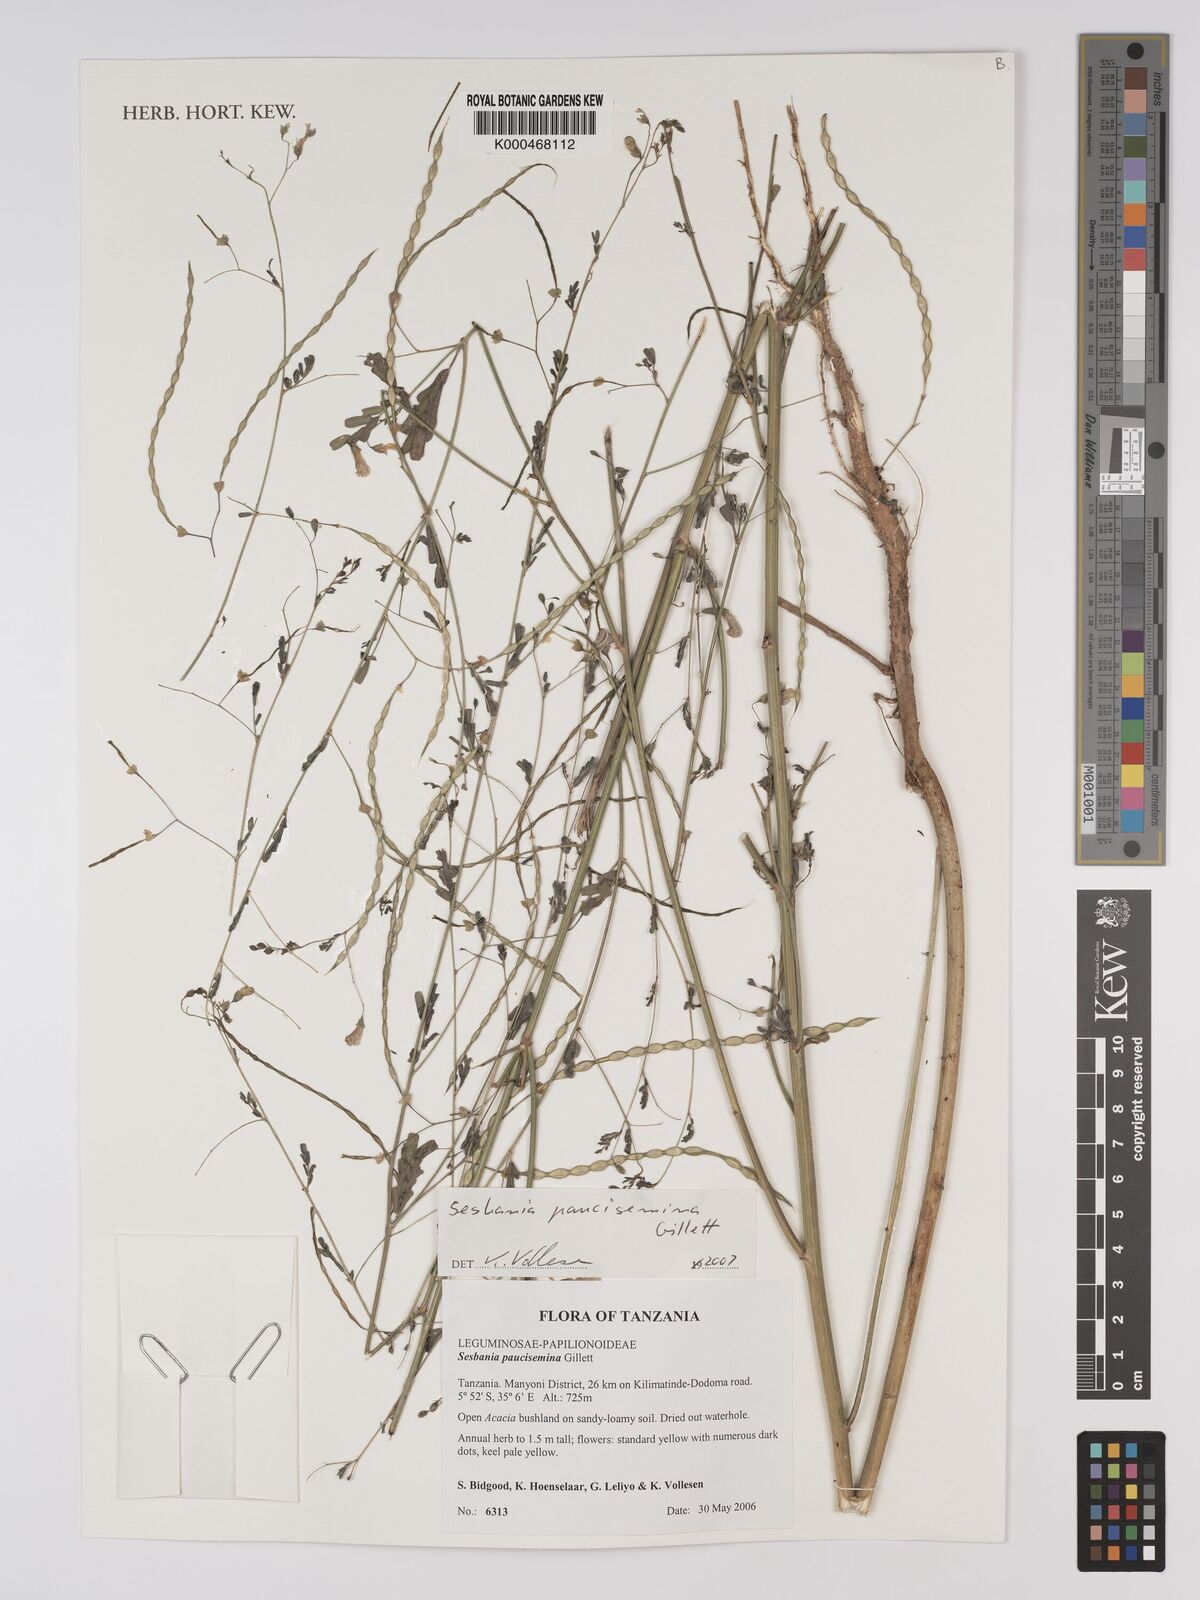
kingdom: Plantae
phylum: Tracheophyta
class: Magnoliopsida
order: Fabales
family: Fabaceae
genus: Sesbania
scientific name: Sesbania paucisemina
